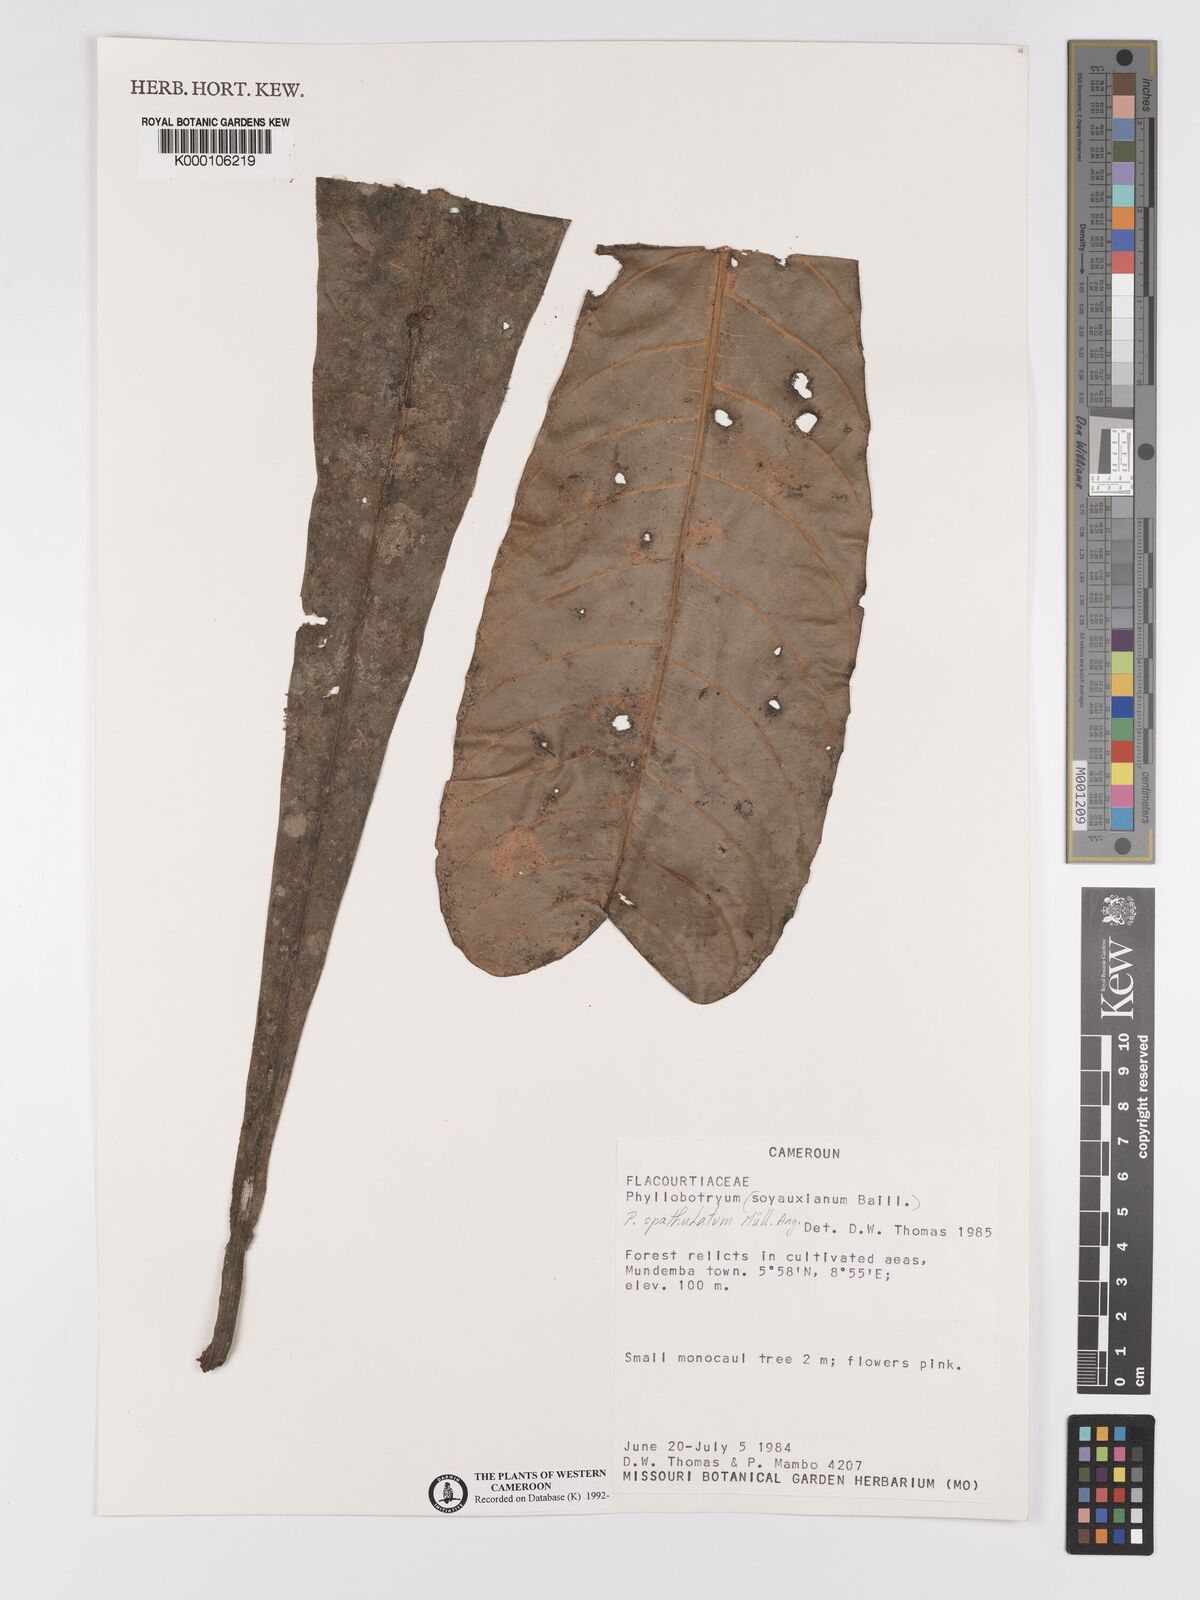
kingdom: Plantae
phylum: Tracheophyta
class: Magnoliopsida
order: Malpighiales
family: Salicaceae
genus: Phyllobotryon
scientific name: Phyllobotryon
